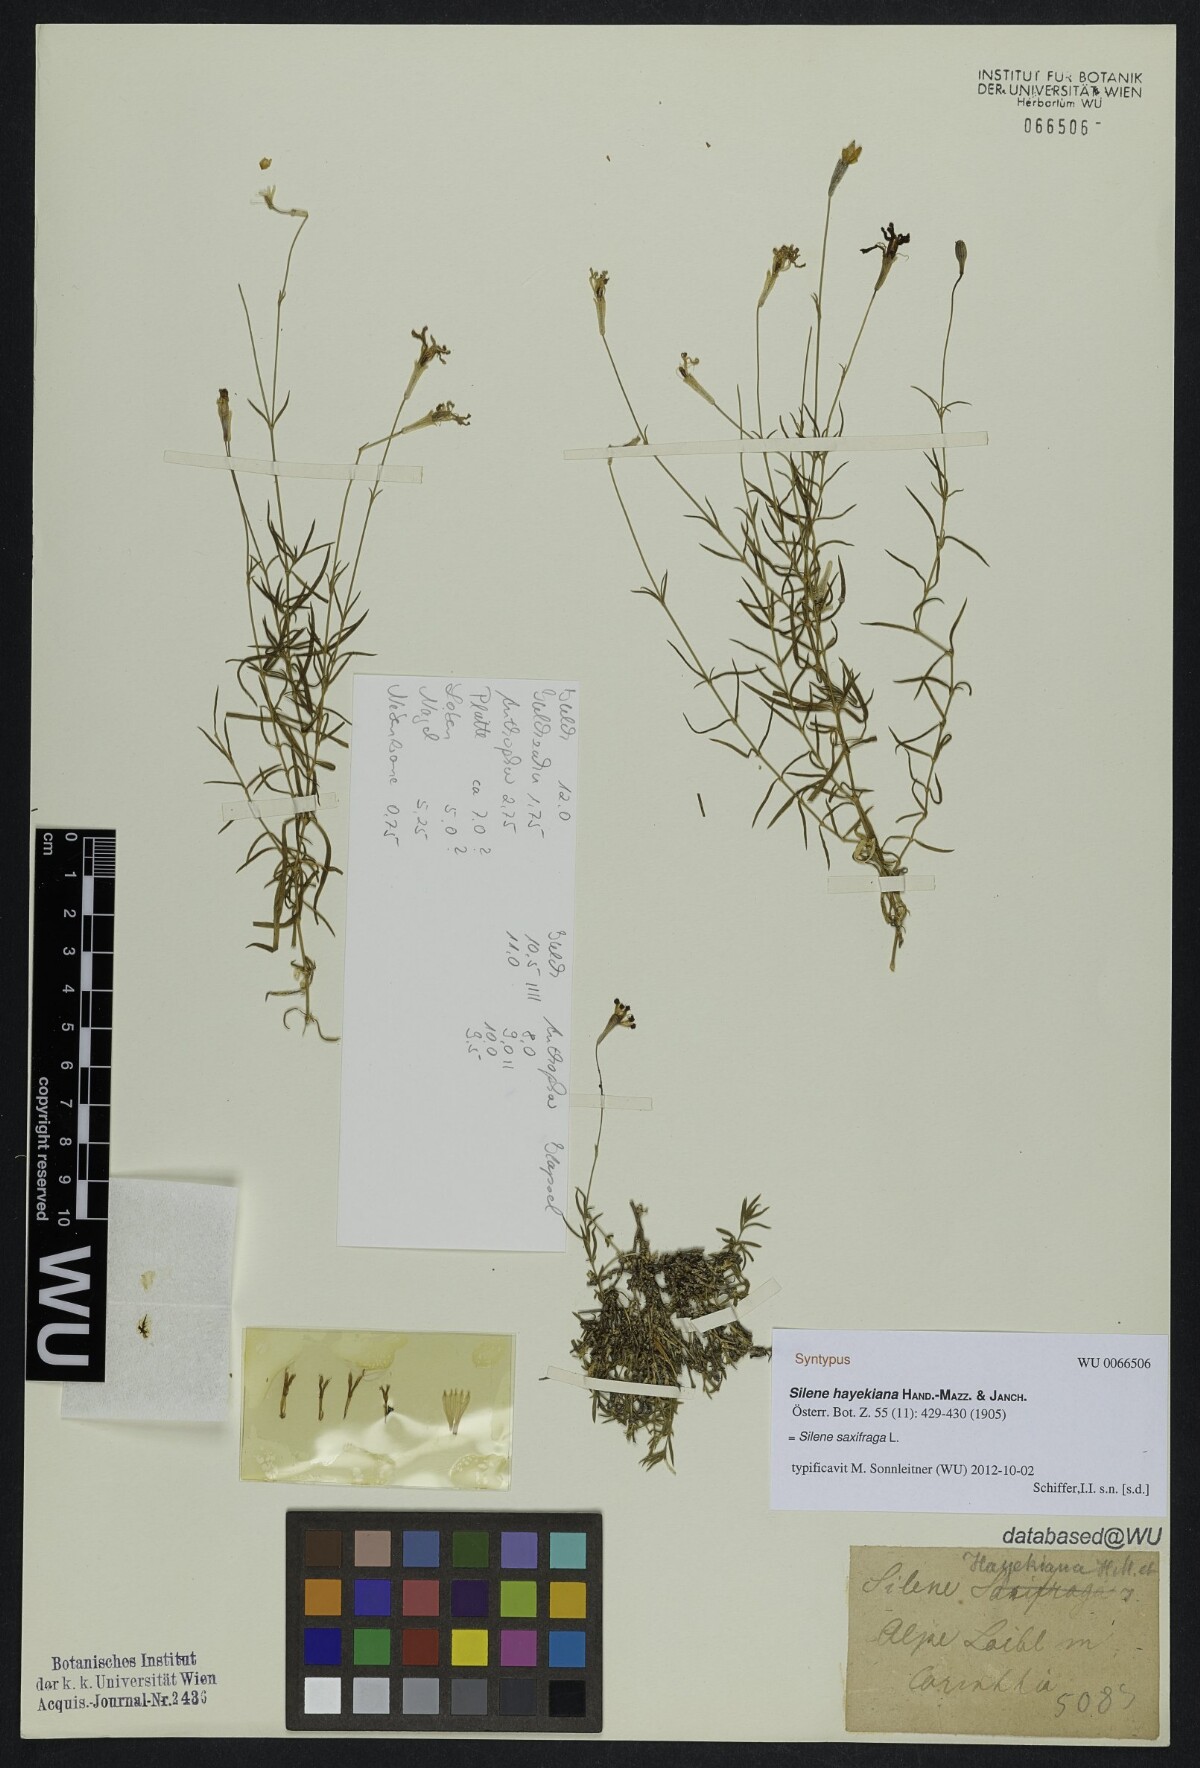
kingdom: Plantae
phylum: Tracheophyta
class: Magnoliopsida
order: Caryophyllales
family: Caryophyllaceae
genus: Silene
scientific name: Silene hayekiana
